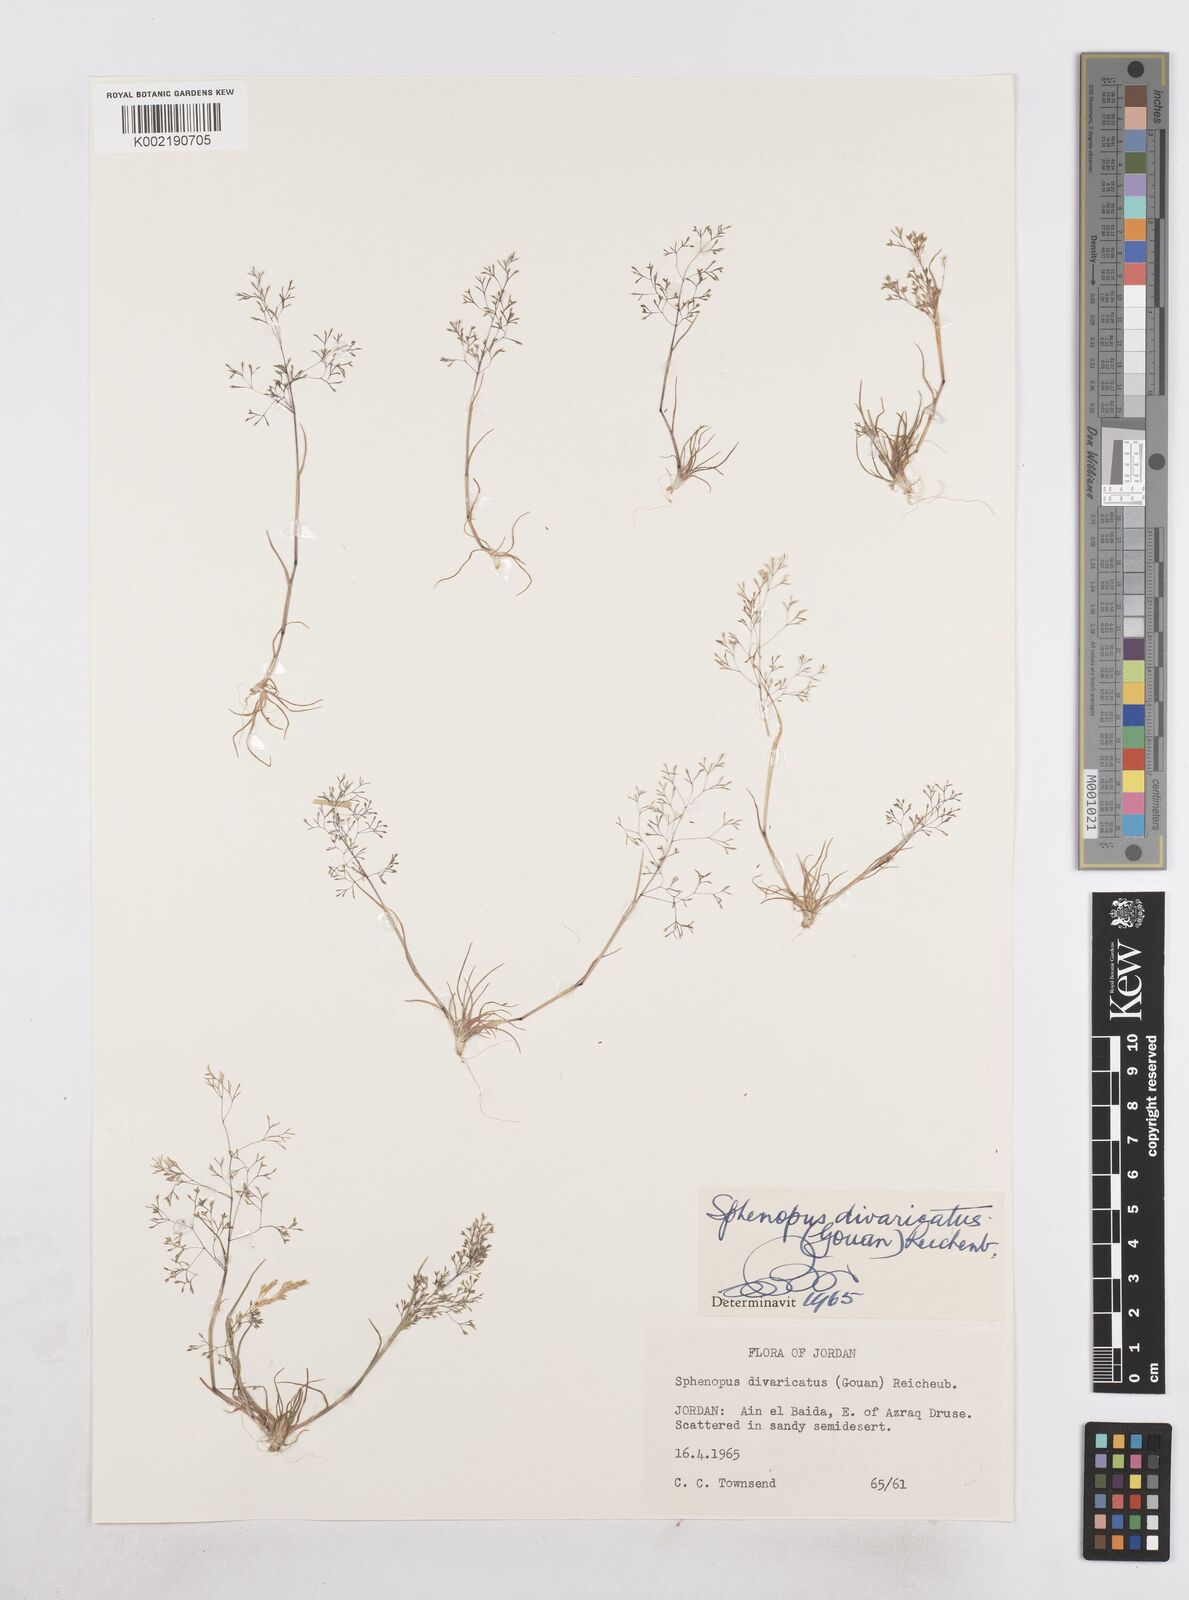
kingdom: Plantae
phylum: Tracheophyta
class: Liliopsida
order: Poales
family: Poaceae
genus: Sphenopus
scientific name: Sphenopus divaricatus
